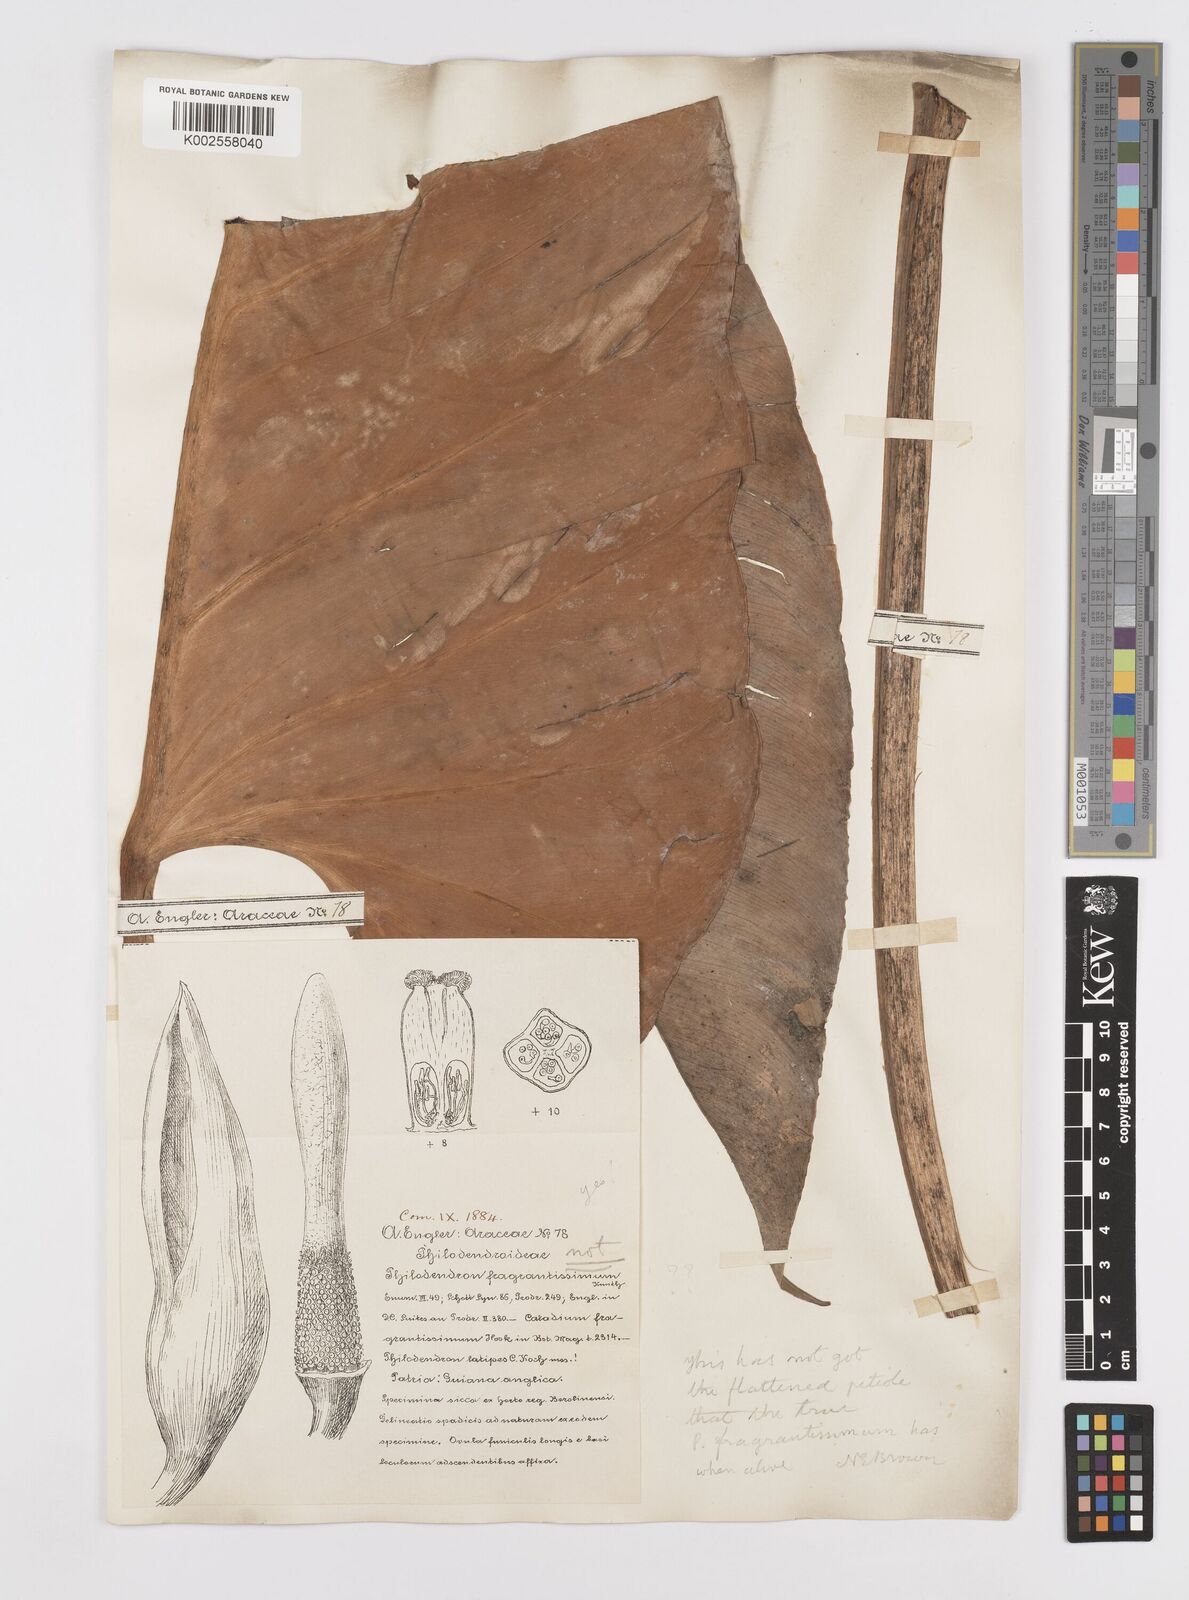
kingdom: Plantae
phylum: Tracheophyta
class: Liliopsida
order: Alismatales
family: Araceae
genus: Philodendron
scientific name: Philodendron fragrantissimum
